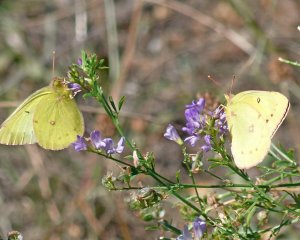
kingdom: Animalia
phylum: Arthropoda
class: Insecta
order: Lepidoptera
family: Pieridae
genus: Colias
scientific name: Colias philodice
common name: Clouded Sulphur
